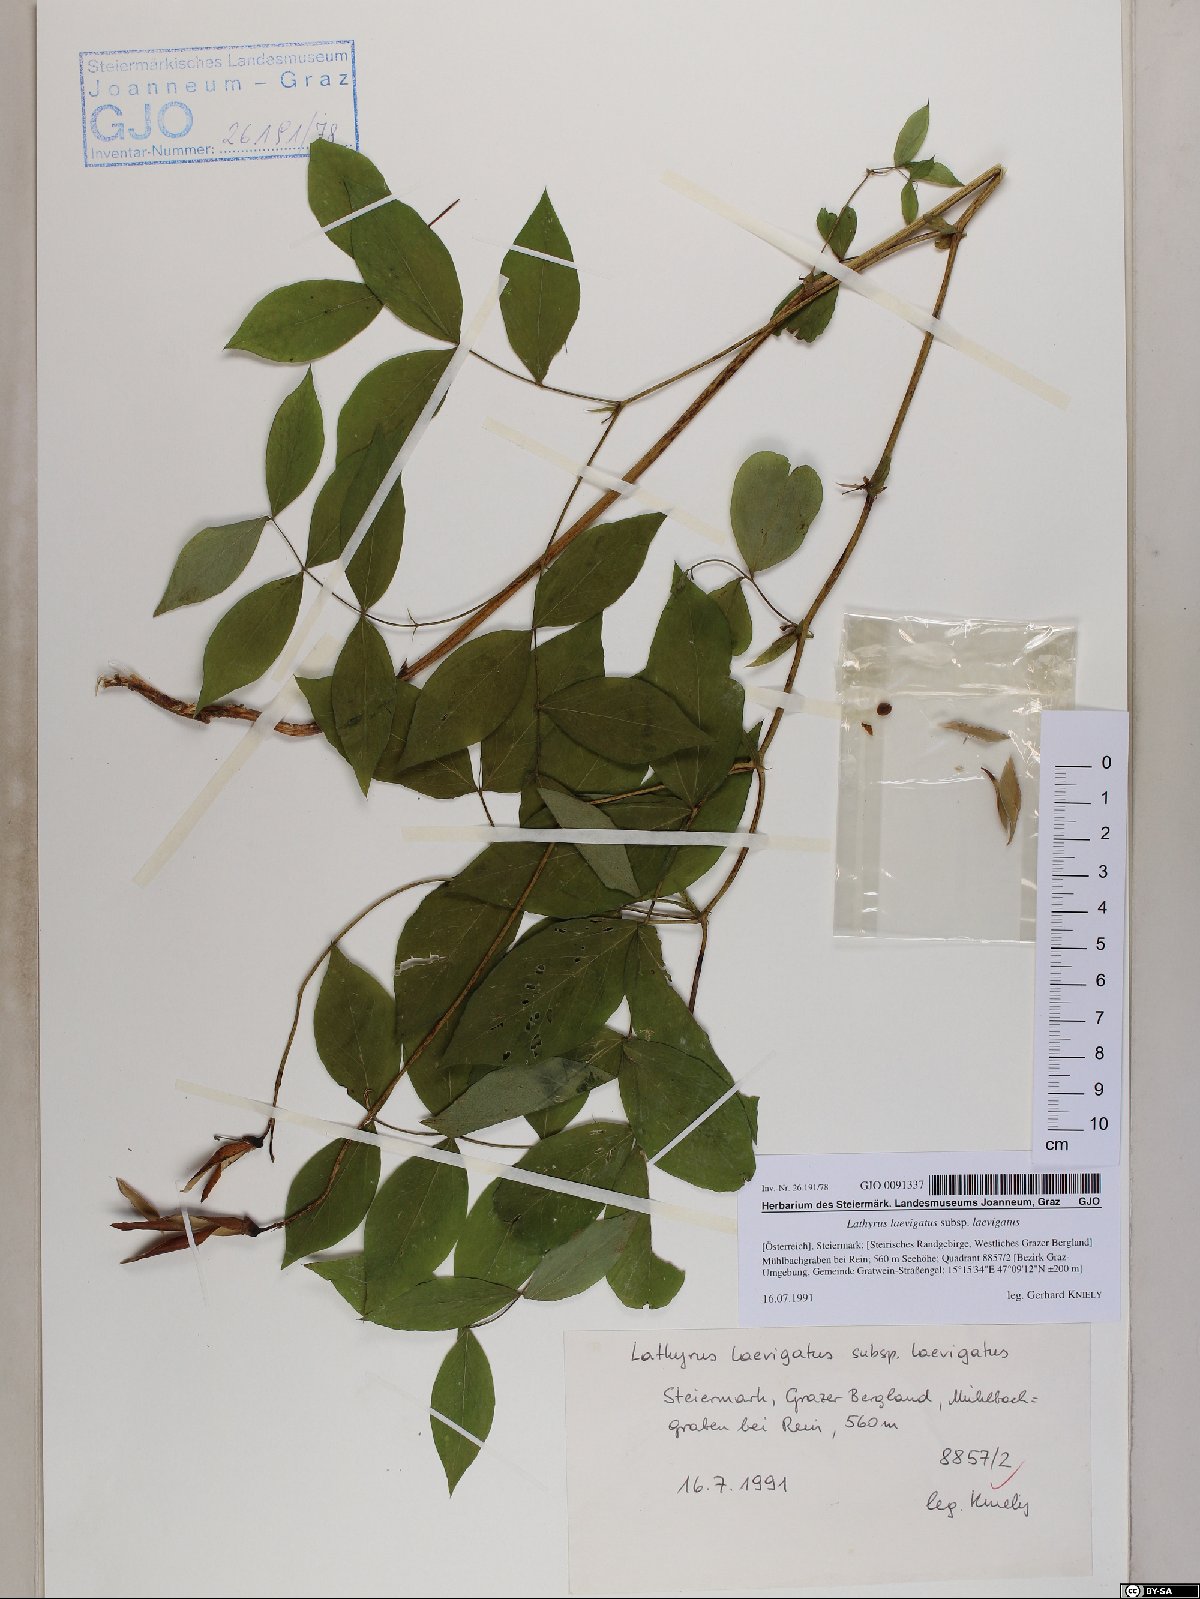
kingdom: Plantae
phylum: Tracheophyta
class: Magnoliopsida
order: Fabales
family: Fabaceae
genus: Lathyrus
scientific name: Lathyrus laevigatus
